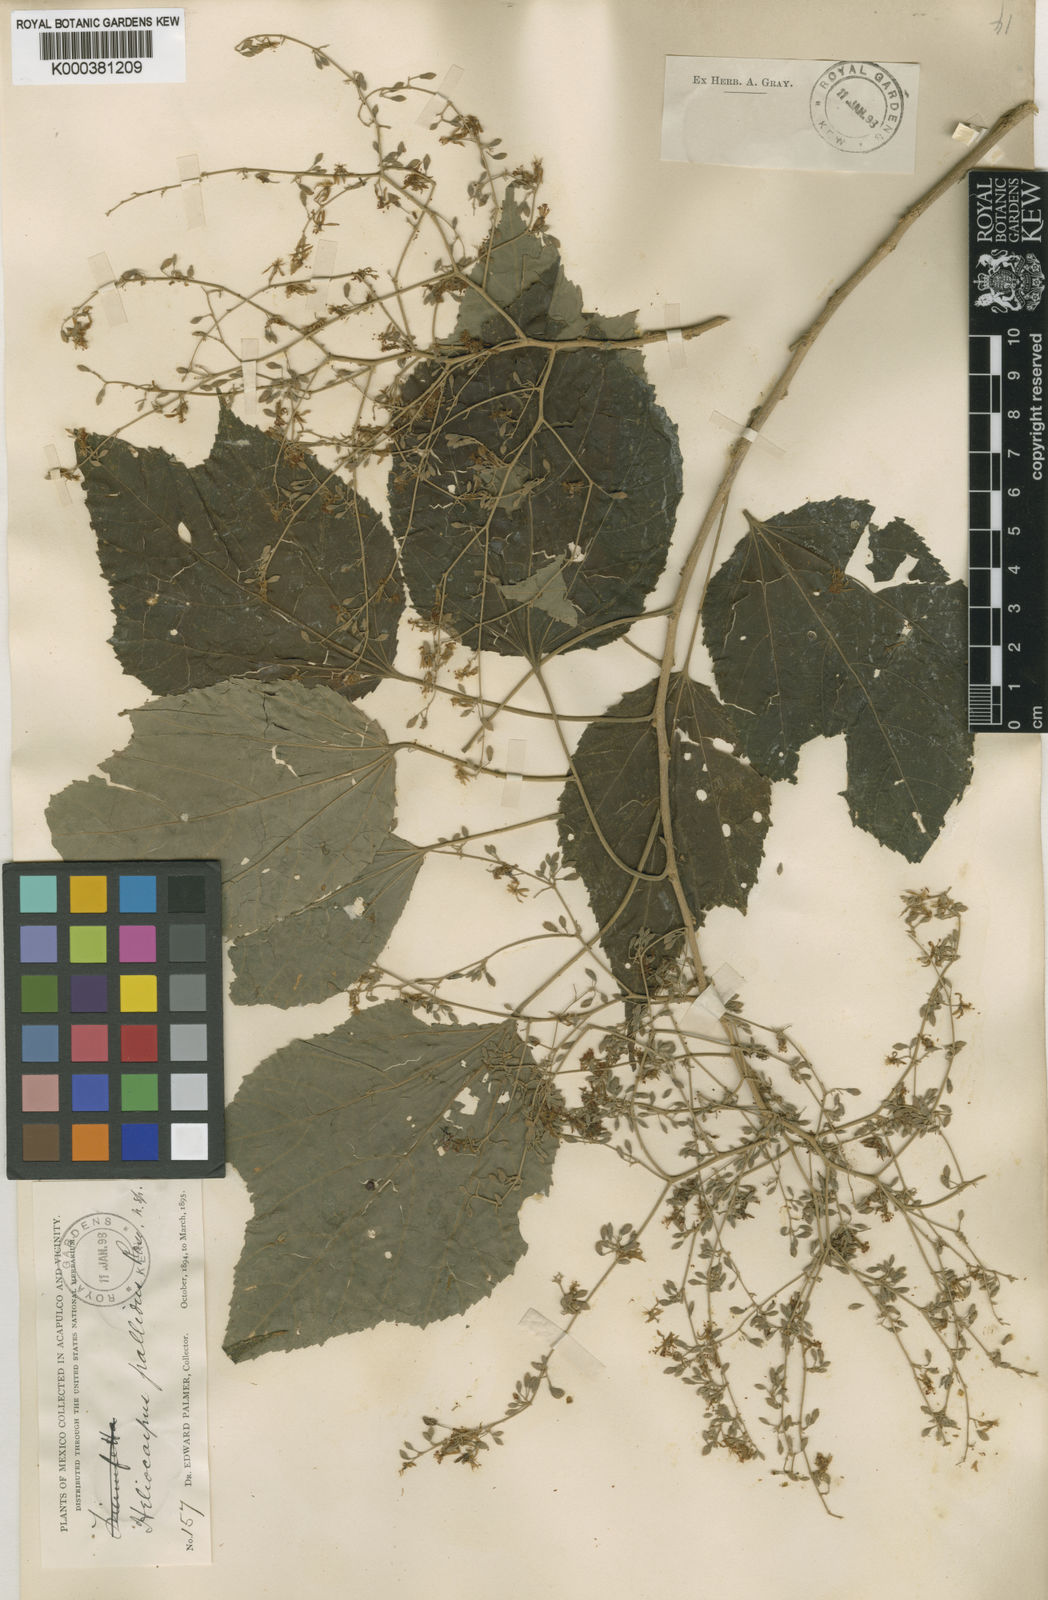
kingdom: Plantae
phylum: Tracheophyta
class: Magnoliopsida
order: Malvales
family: Malvaceae
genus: Heliocarpus
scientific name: Heliocarpus pallidus
